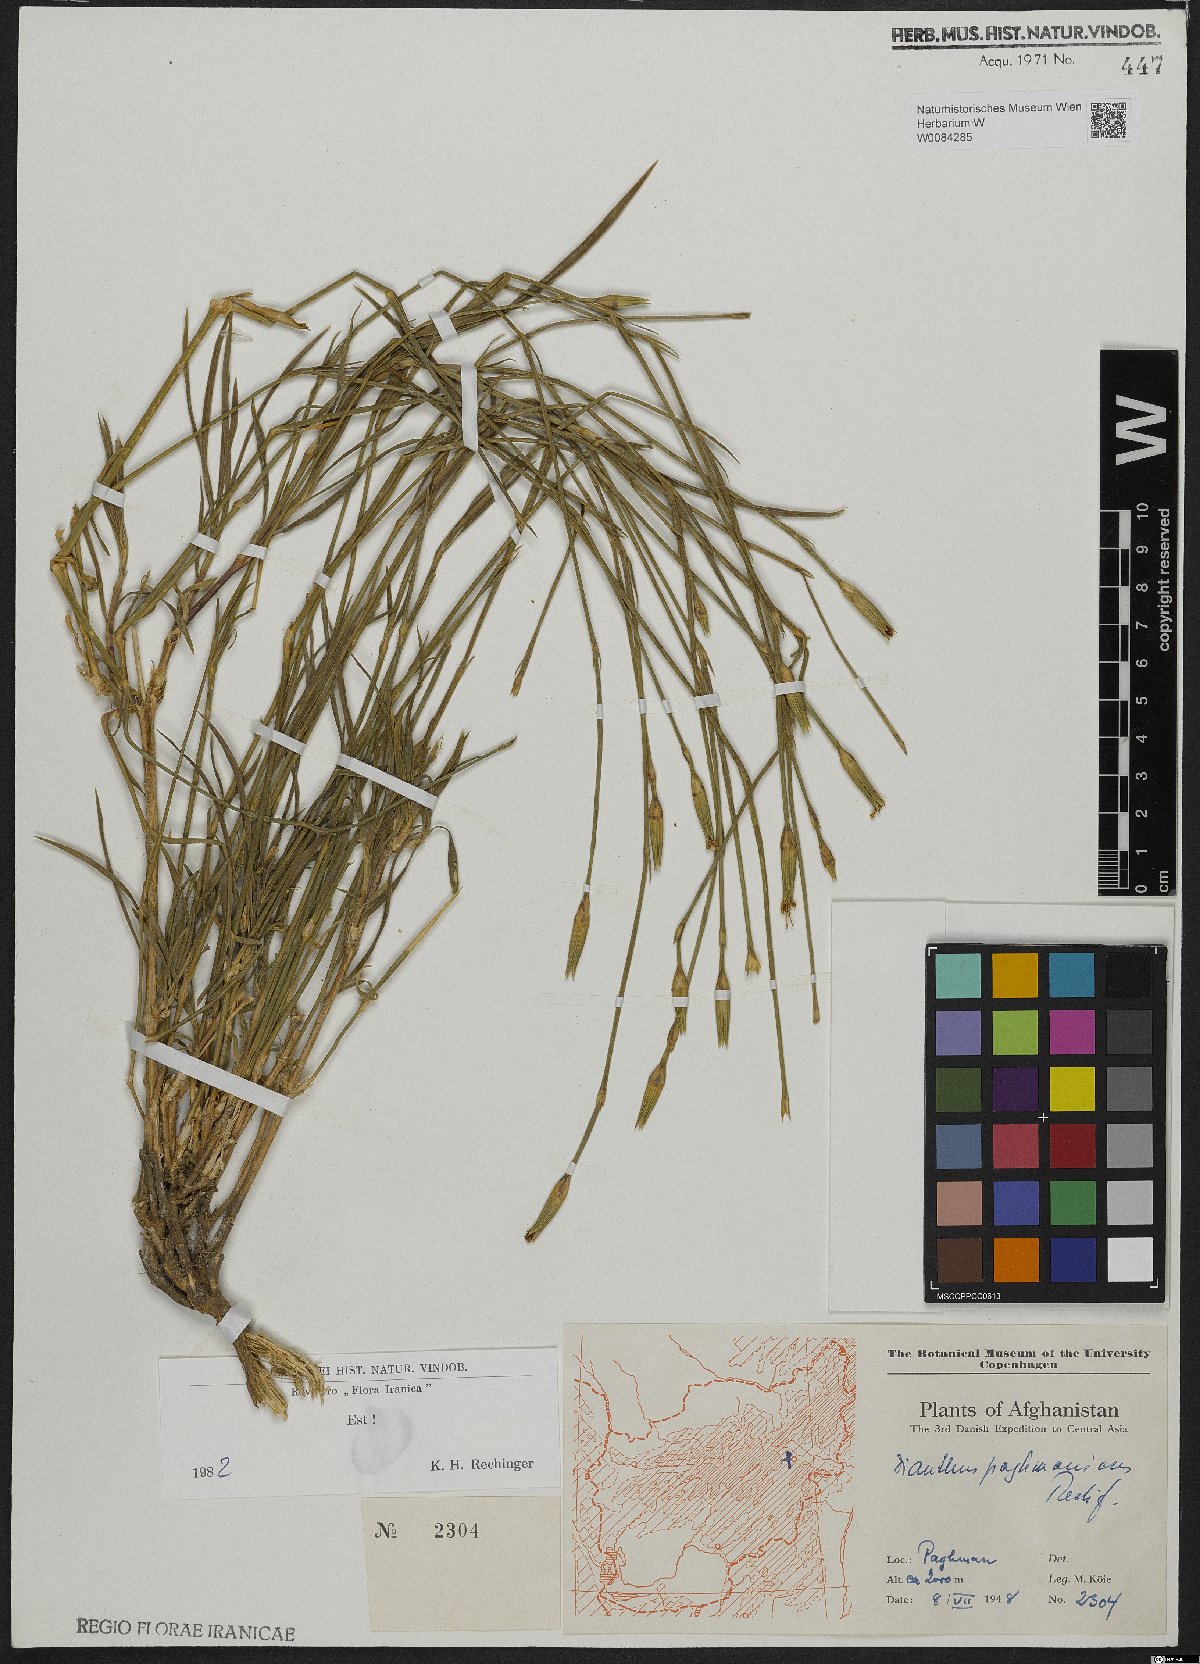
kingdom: Plantae
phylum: Tracheophyta
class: Magnoliopsida
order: Caryophyllales
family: Caryophyllaceae
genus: Dianthus
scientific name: Dianthus paghmanicus
